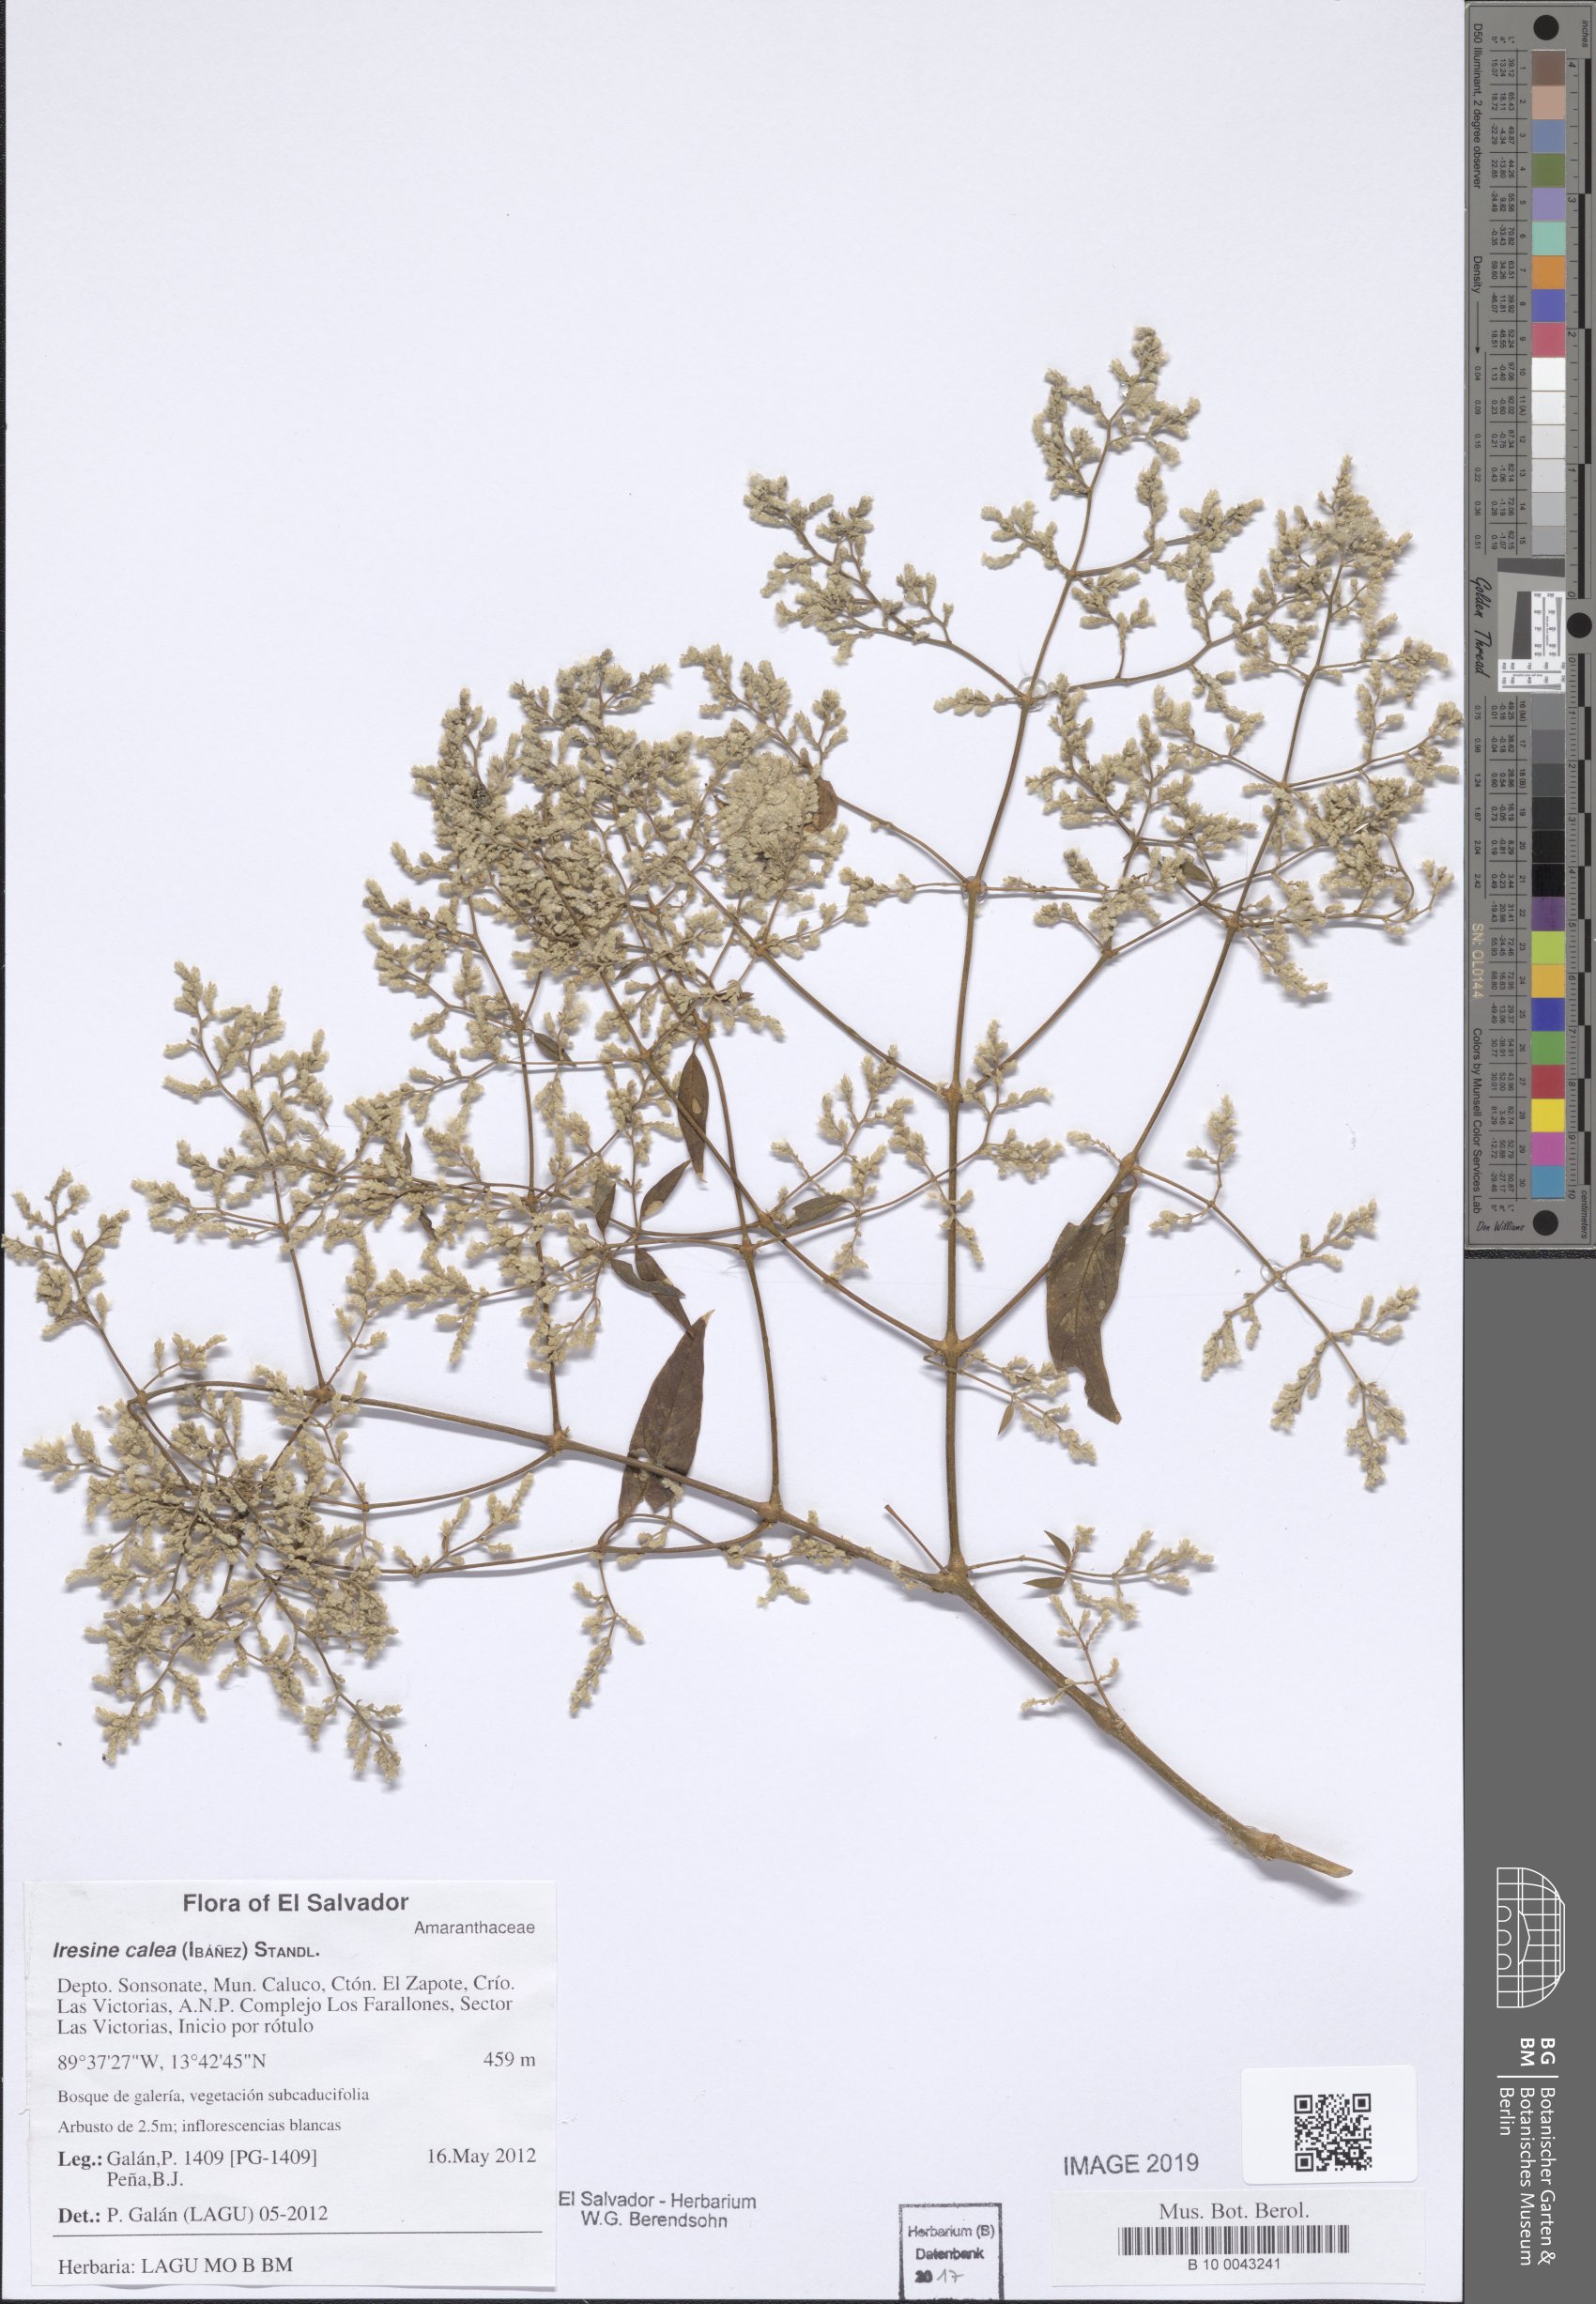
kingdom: Plantae
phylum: Tracheophyta
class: Magnoliopsida
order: Caryophyllales
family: Amaranthaceae
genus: Iresine
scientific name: Iresine latifolia
